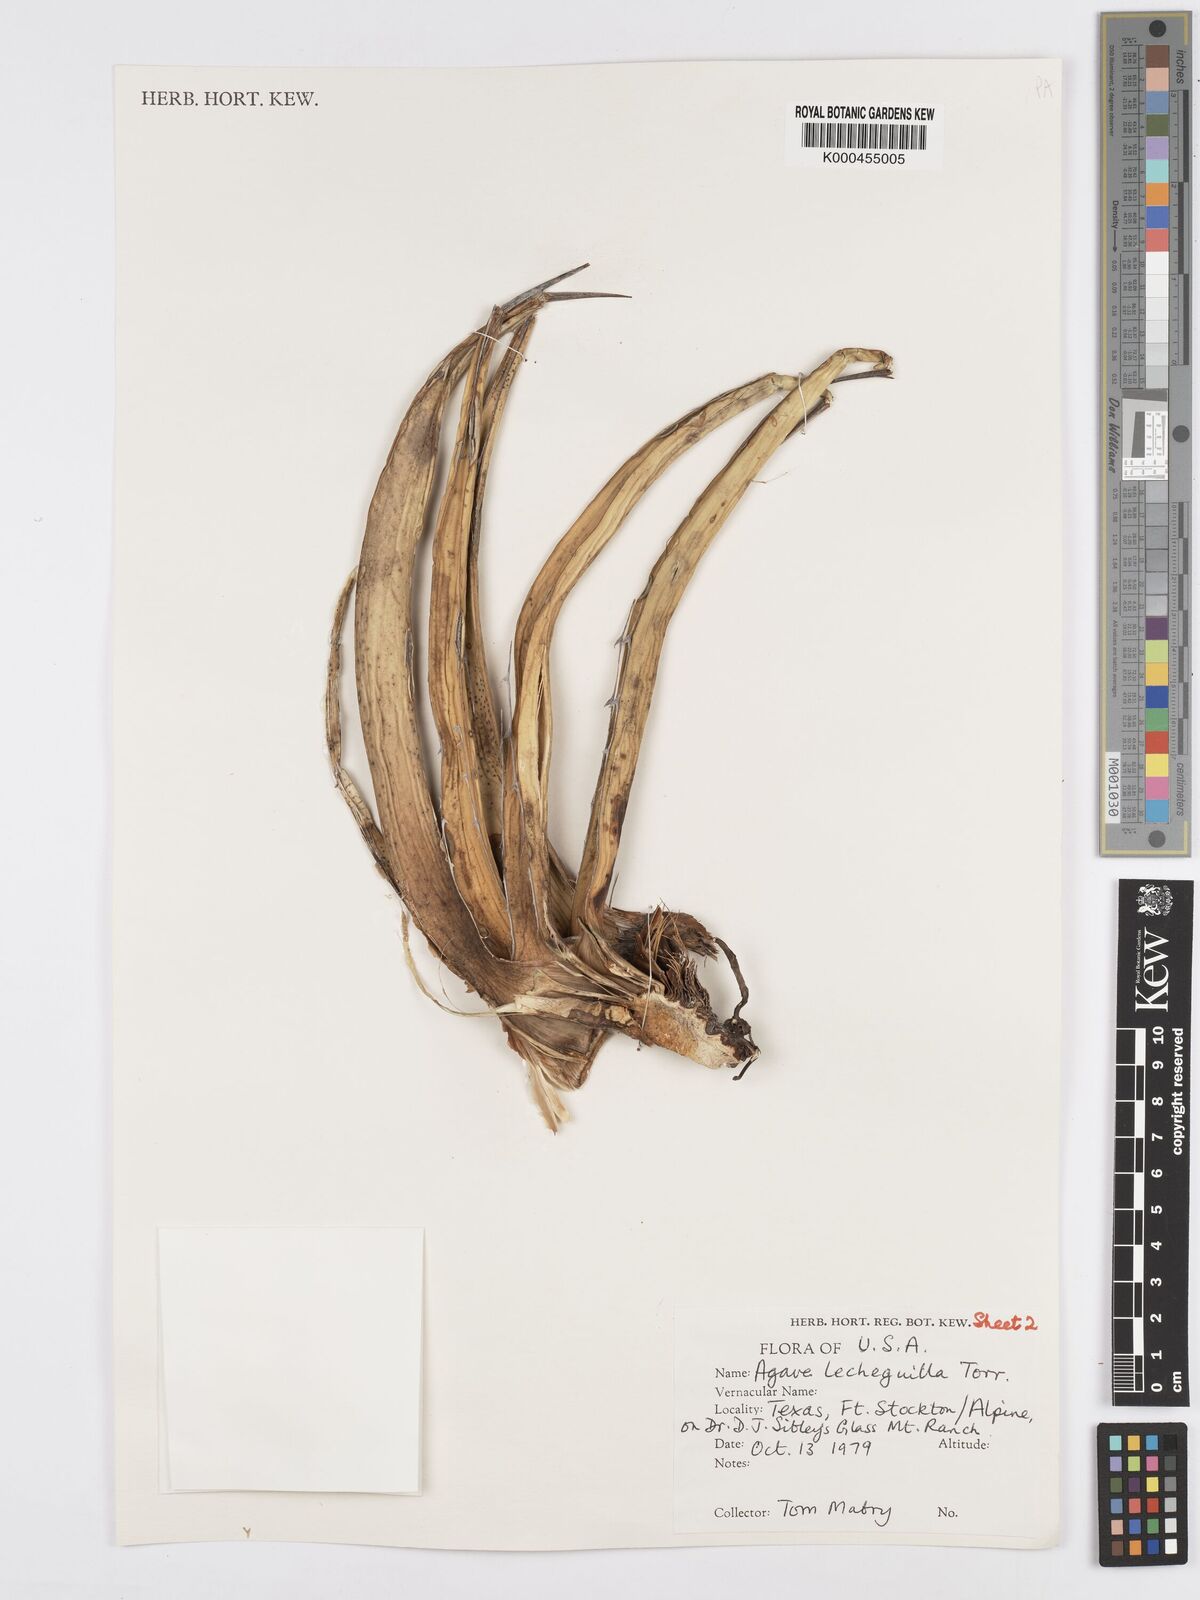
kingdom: Plantae
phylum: Tracheophyta
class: Liliopsida
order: Asparagales
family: Asparagaceae
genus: Agave
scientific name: Agave lechuguilla
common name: Lecheguilla agave
